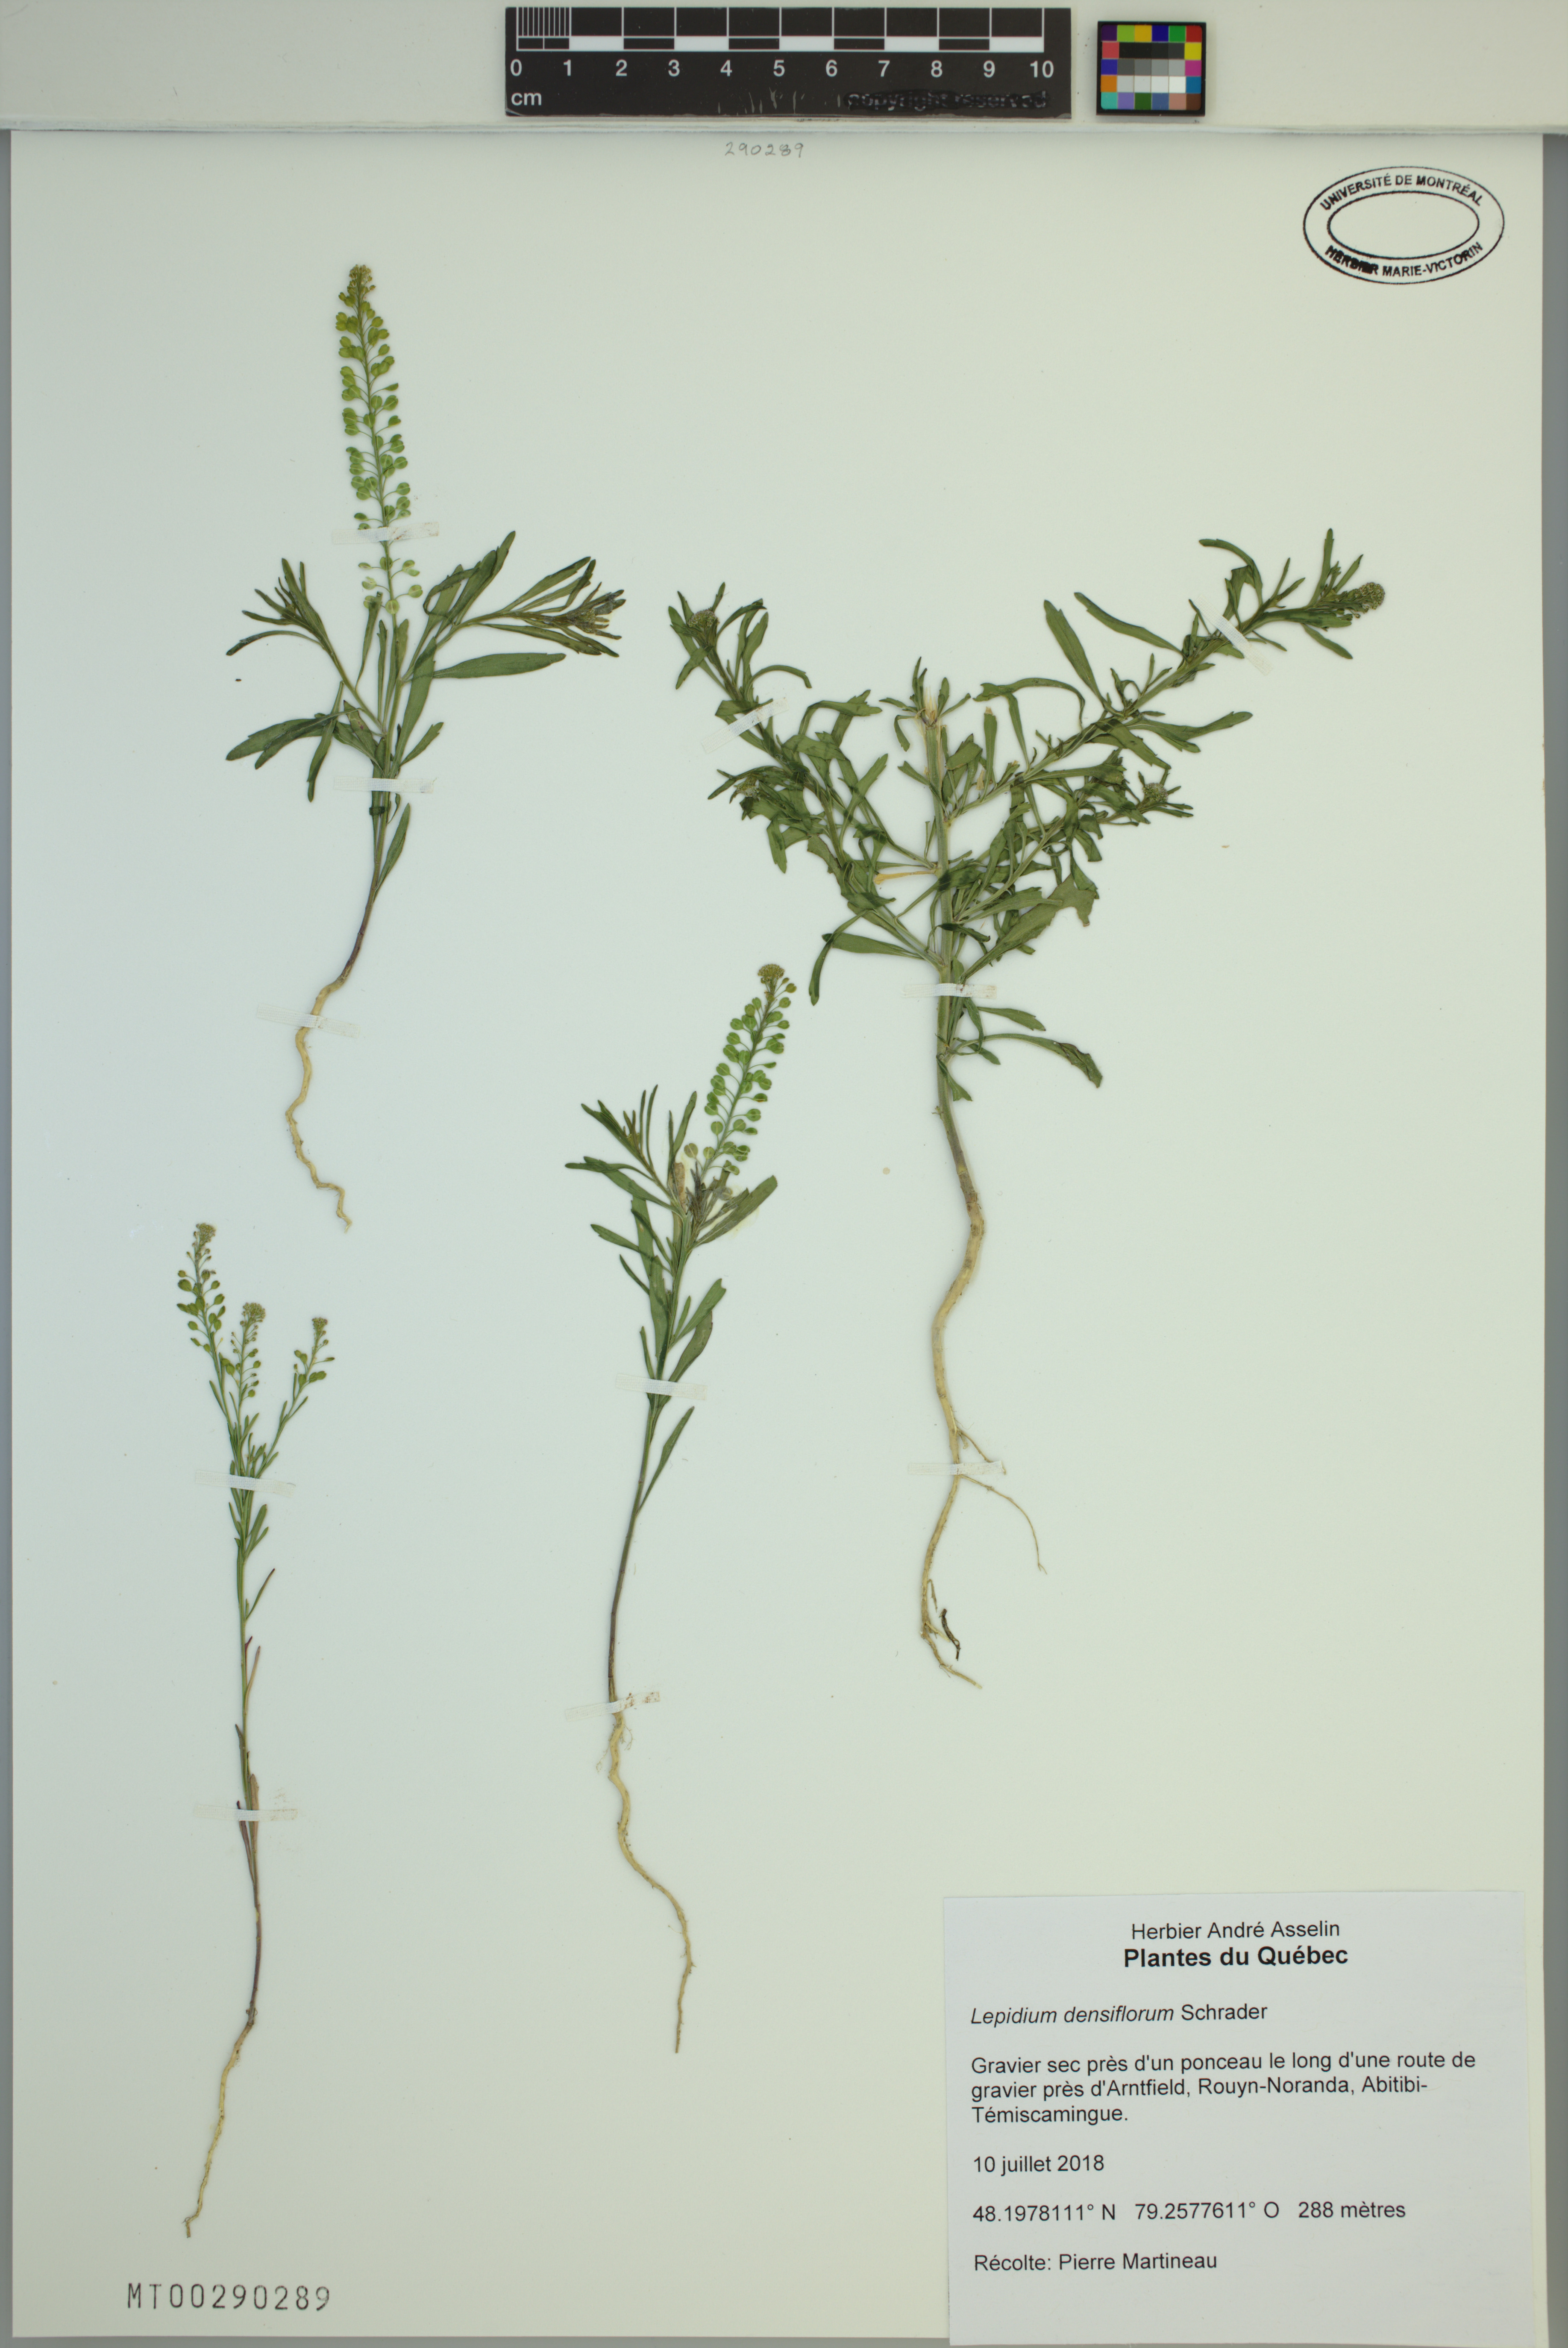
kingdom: Plantae
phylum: Tracheophyta
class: Magnoliopsida
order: Brassicales
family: Brassicaceae
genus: Lepidium
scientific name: Lepidium densiflorum
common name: Miner's pepperwort
